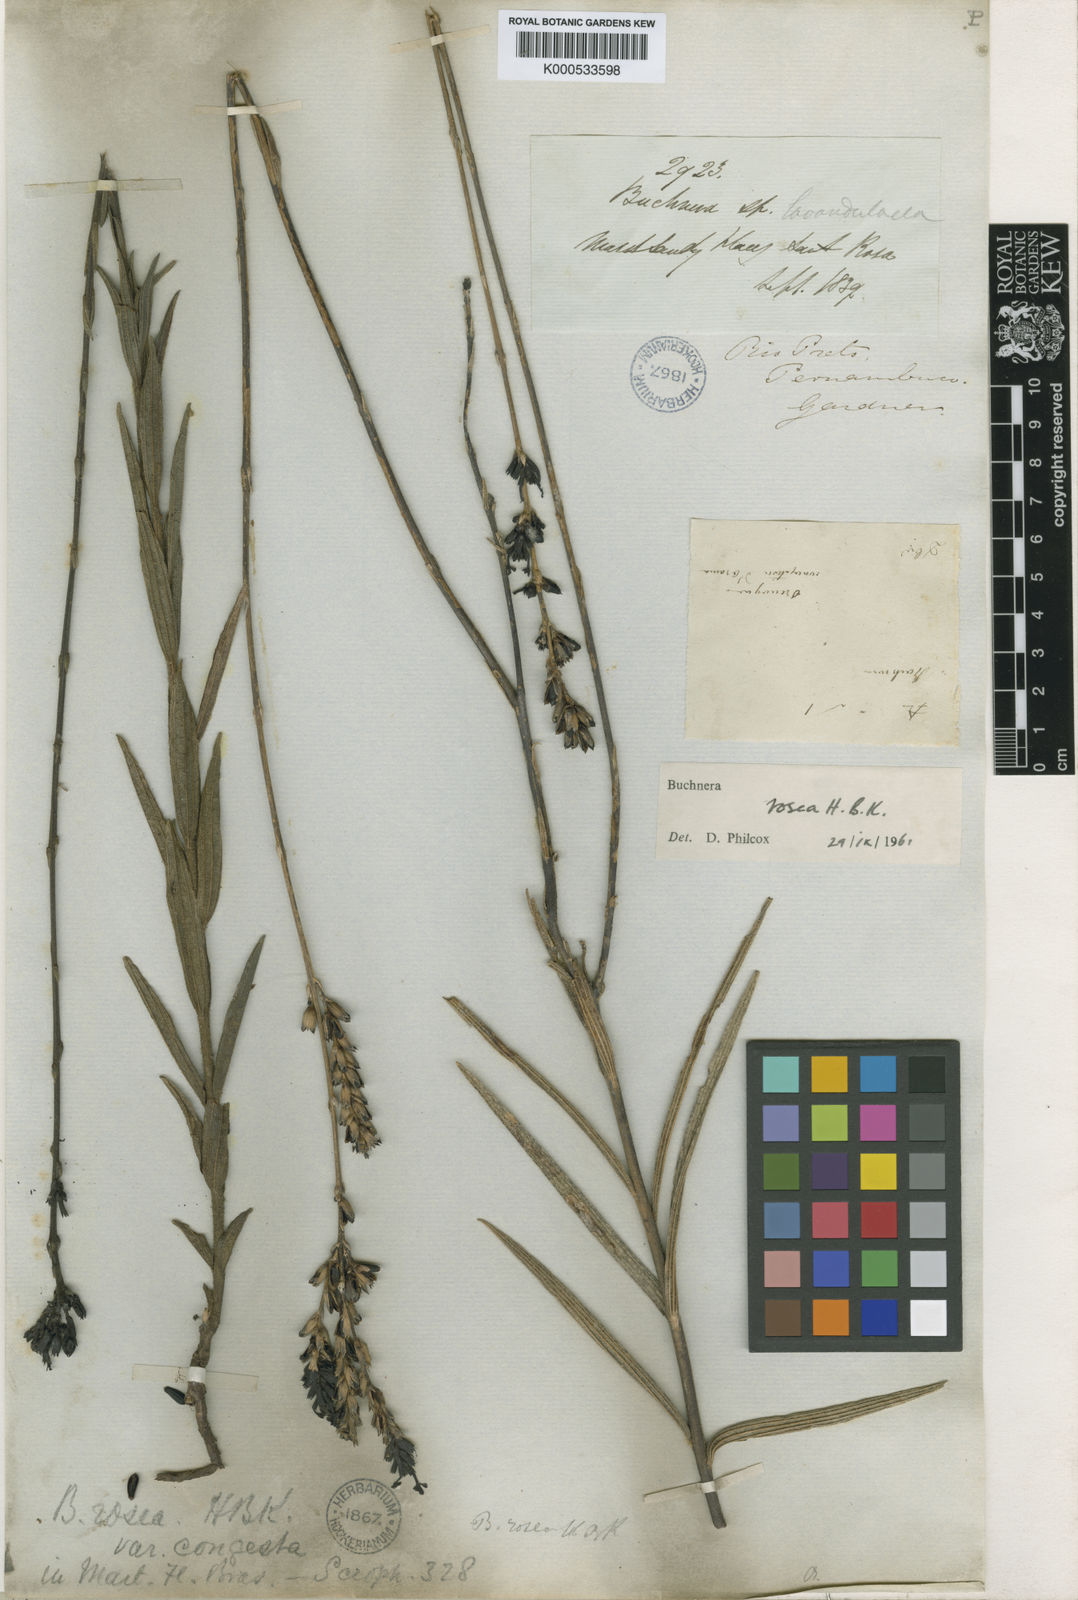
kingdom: Plantae
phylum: Tracheophyta
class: Magnoliopsida
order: Lamiales
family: Orobanchaceae
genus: Buchnera
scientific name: Buchnera rosea
